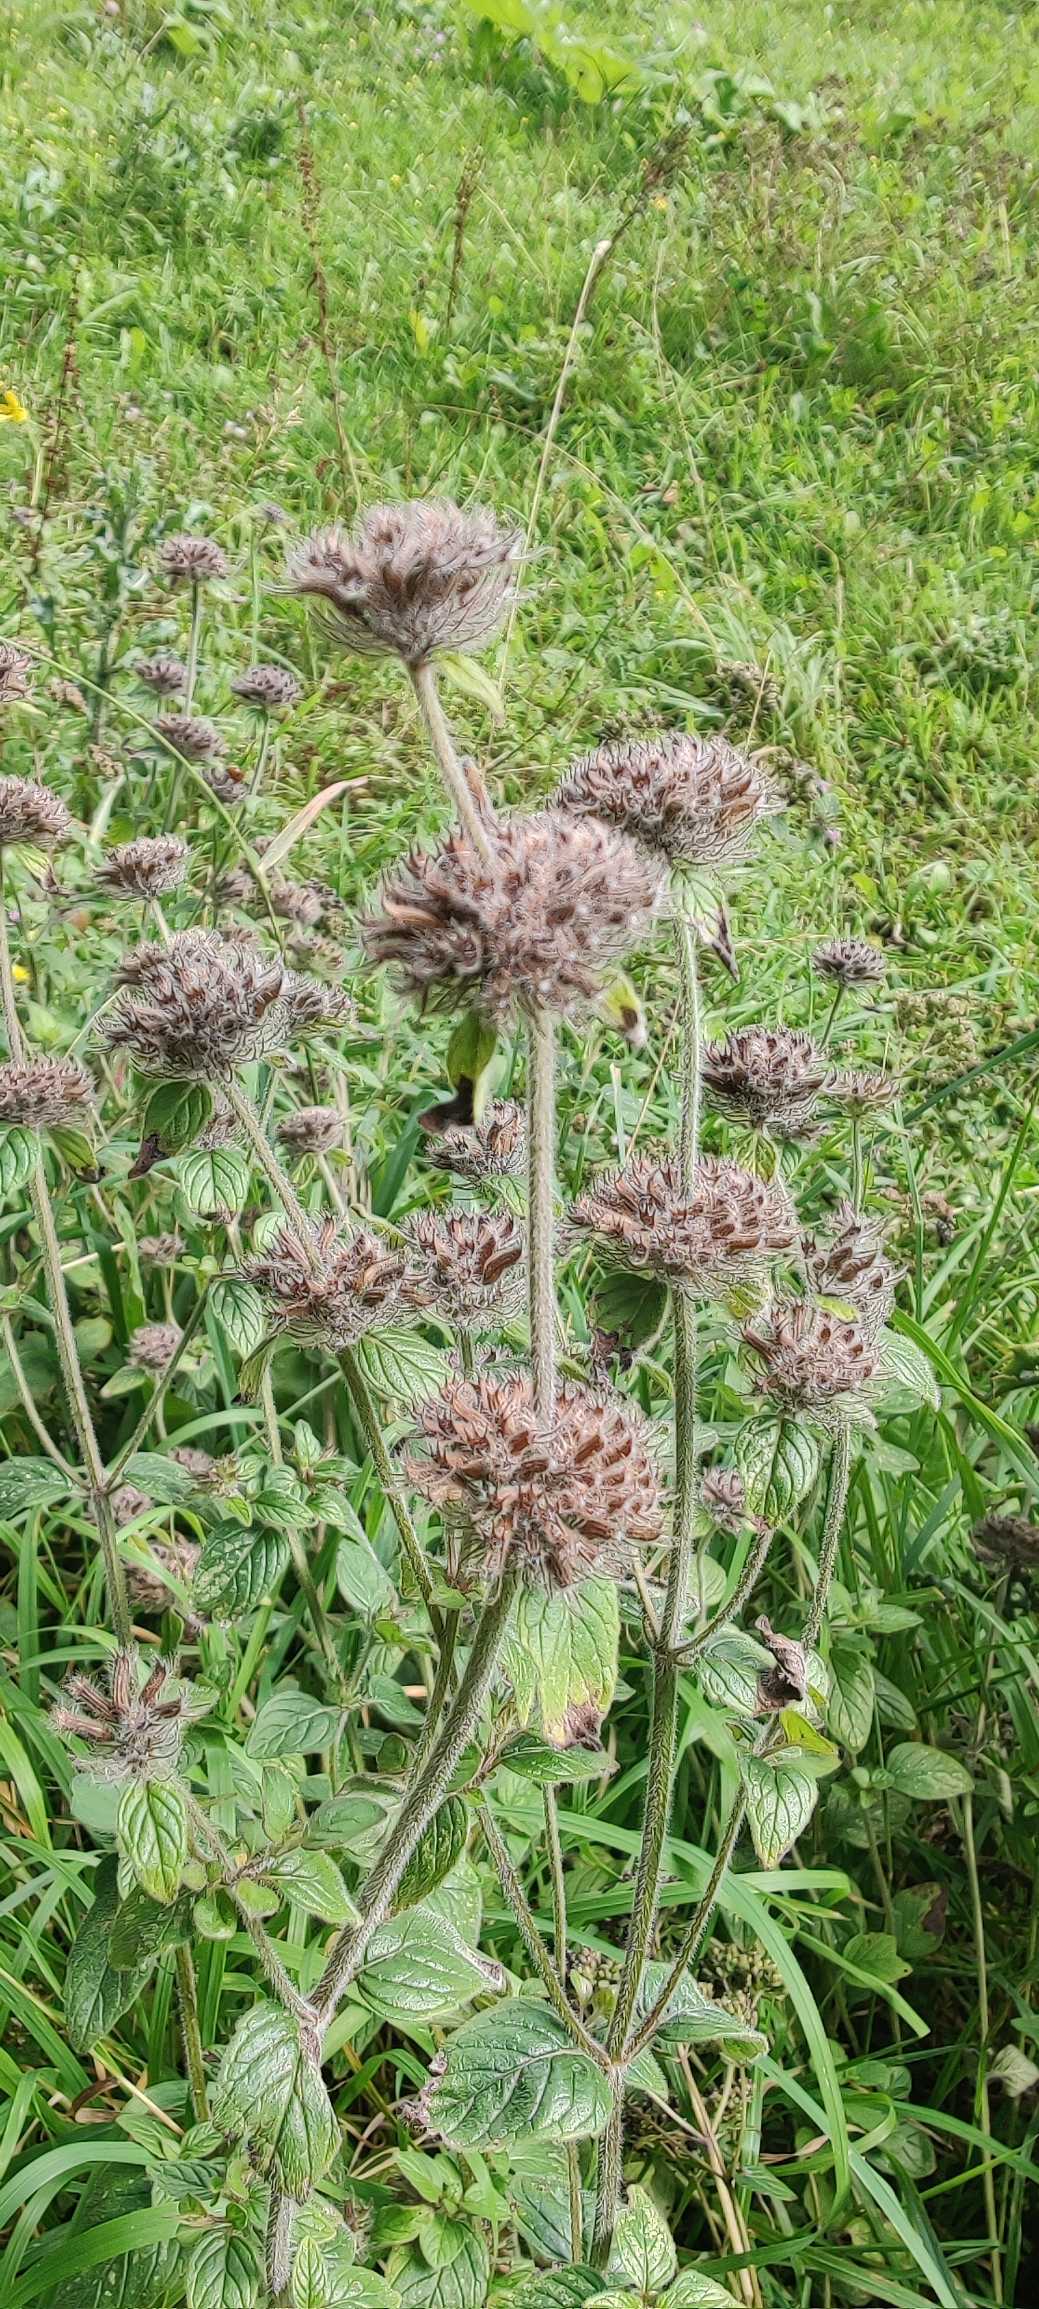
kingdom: Plantae
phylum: Tracheophyta
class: Magnoliopsida
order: Lamiales
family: Lamiaceae
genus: Clinopodium
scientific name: Clinopodium vulgare
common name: Kransbørste
